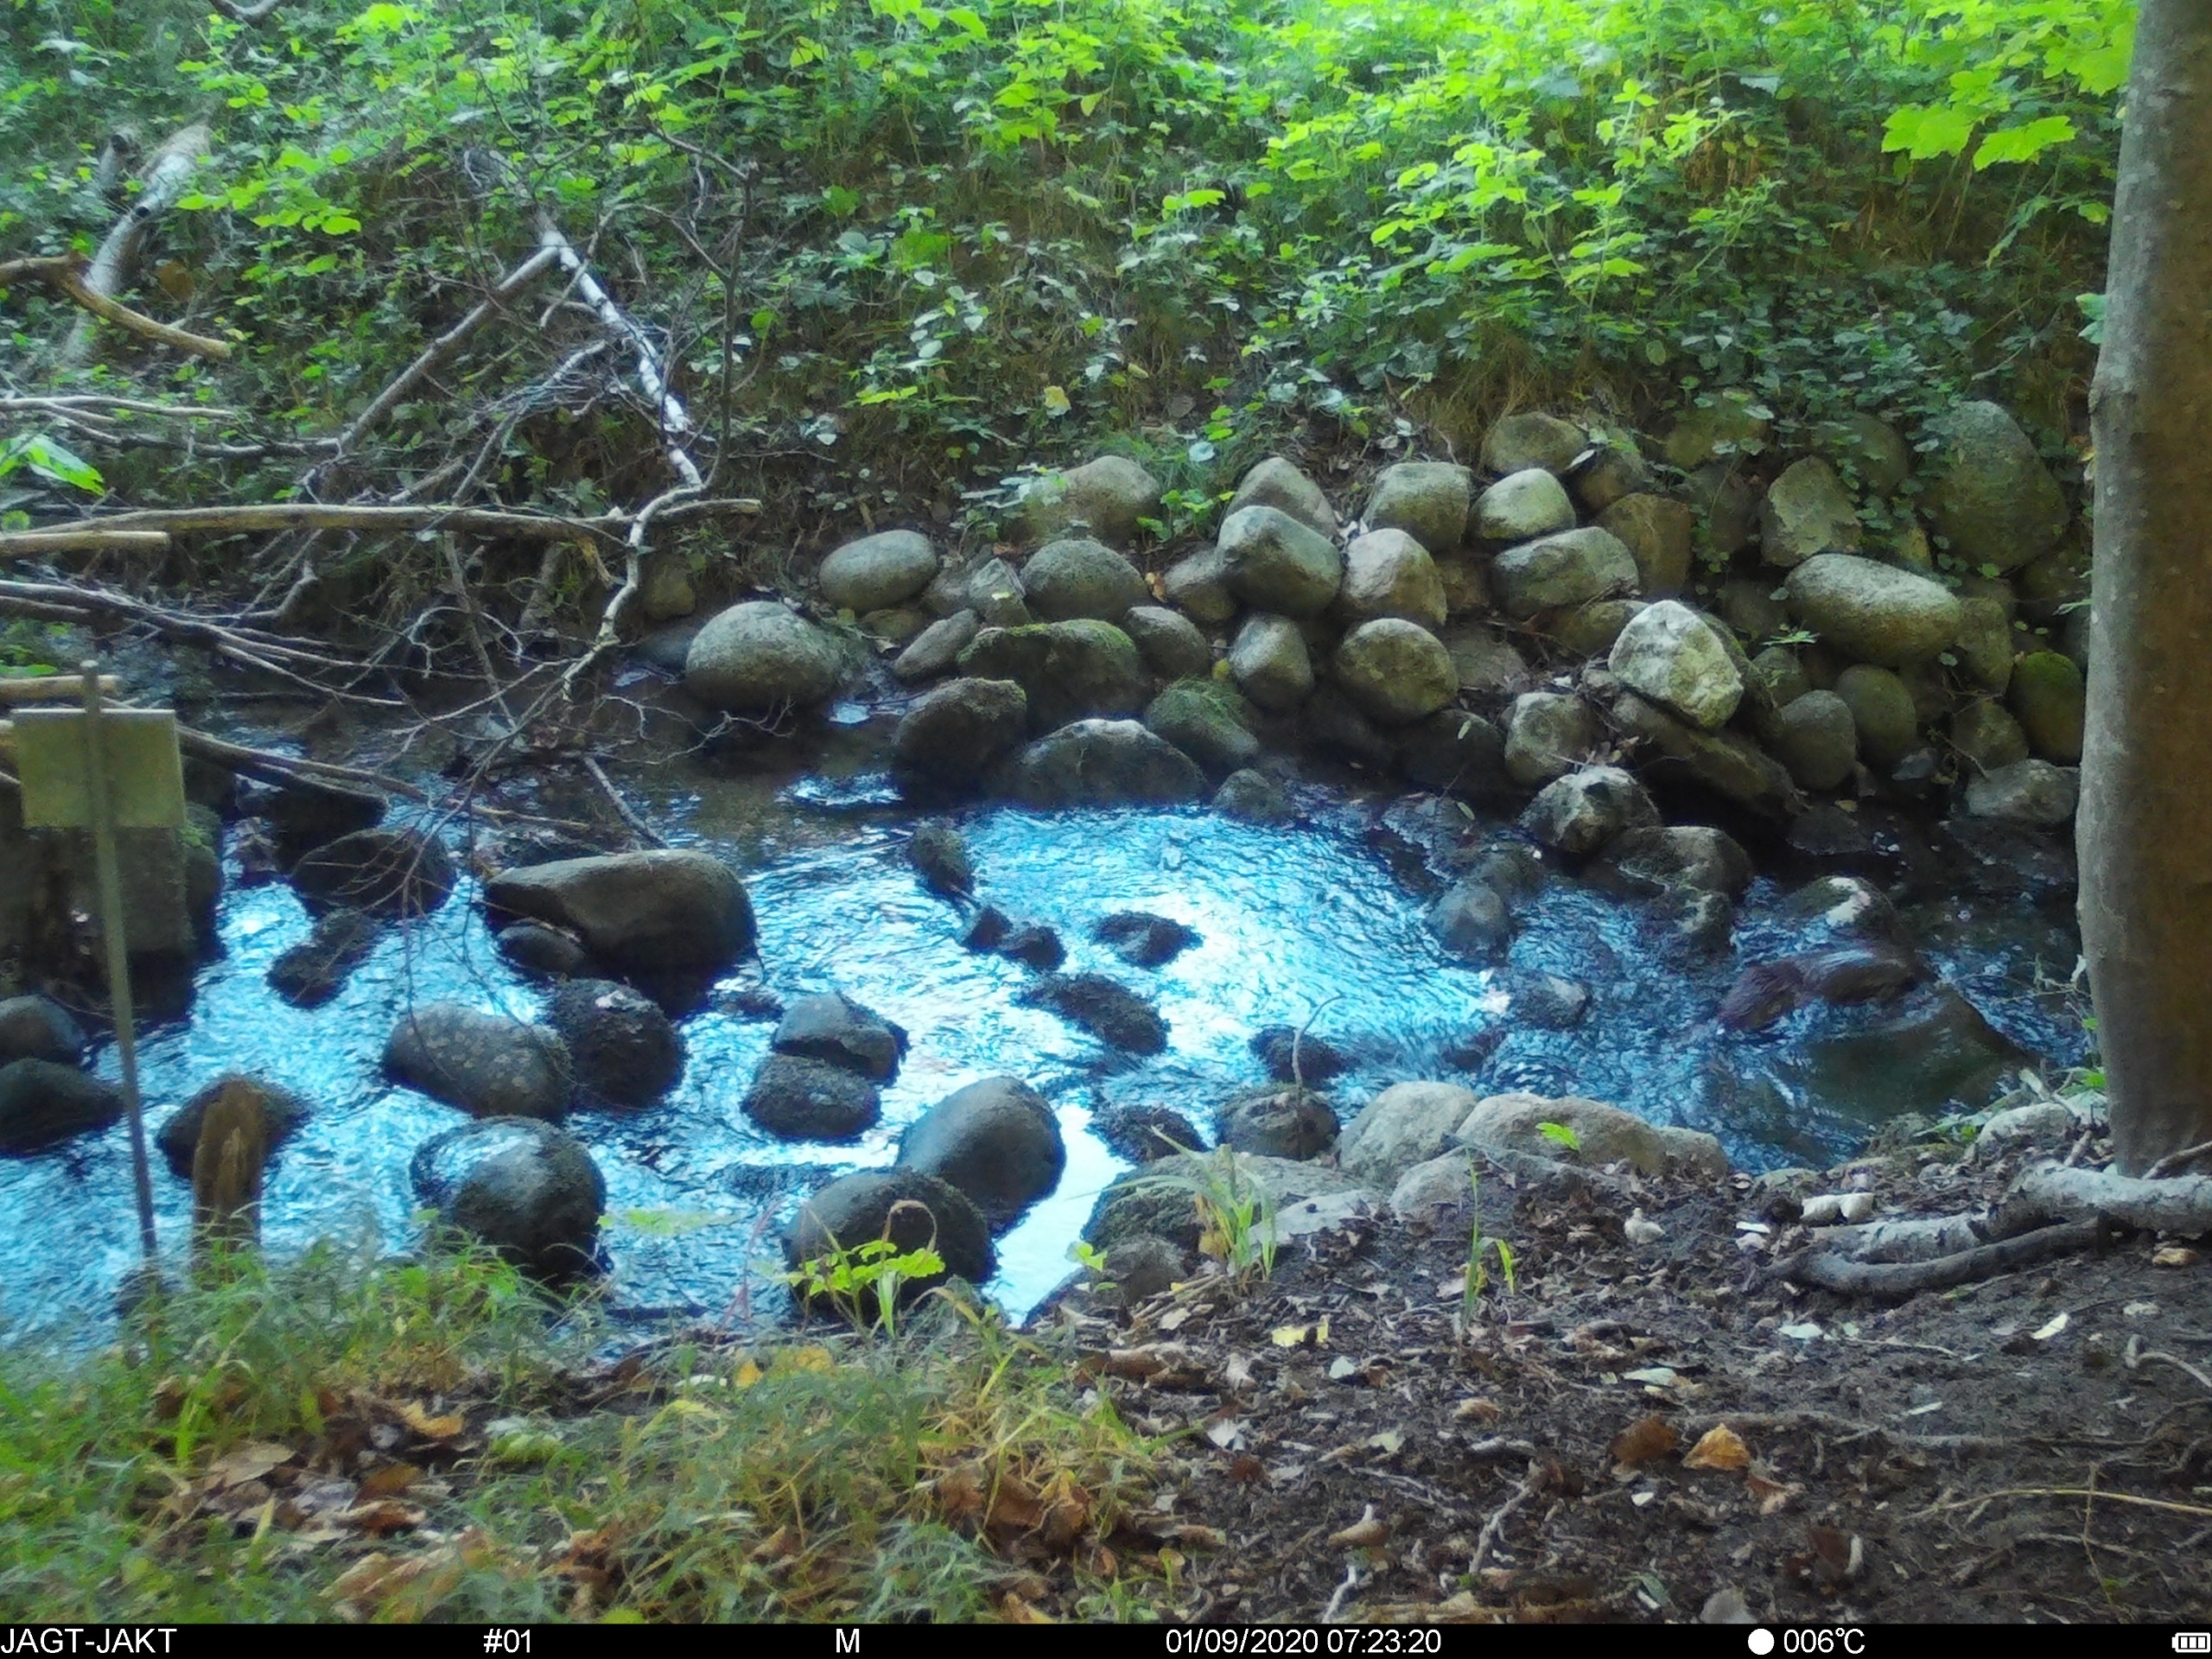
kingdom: Animalia
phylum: Chordata
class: Mammalia
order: Carnivora
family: Mustelidae
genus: Lutra
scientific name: Lutra lutra
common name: Odder
